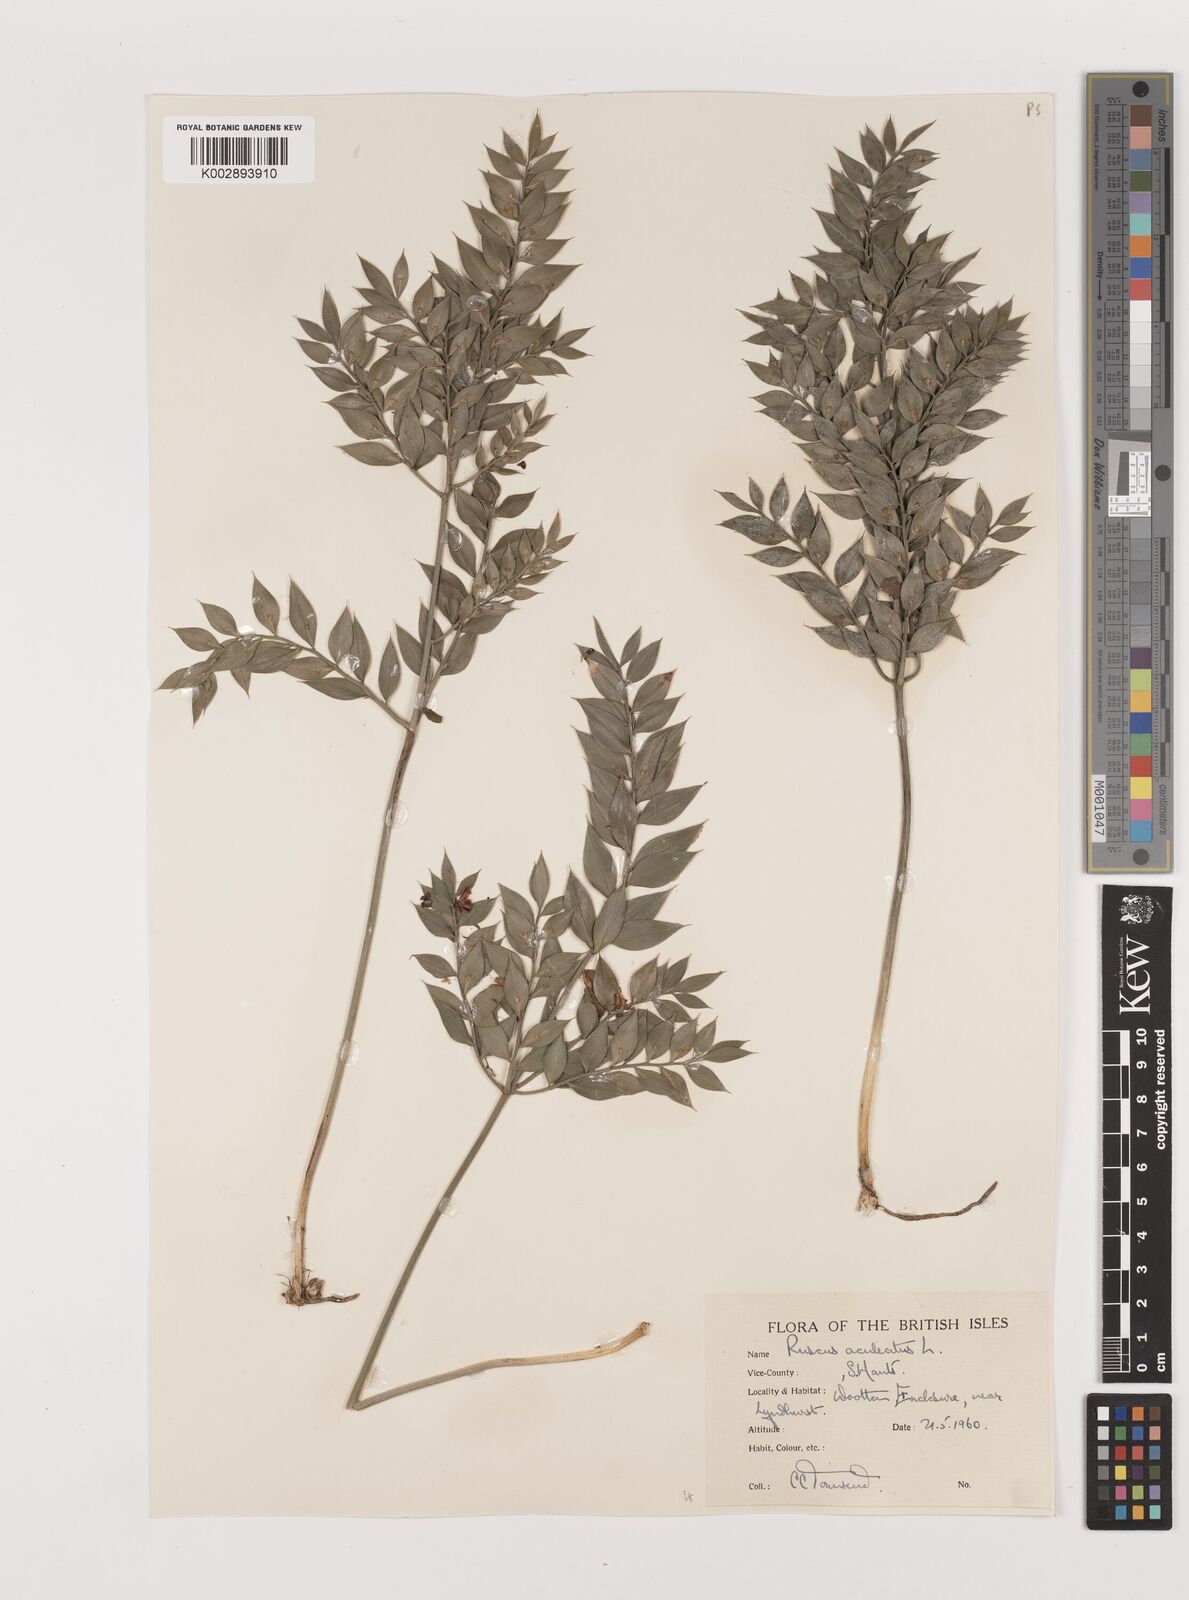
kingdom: Plantae
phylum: Tracheophyta
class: Liliopsida
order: Asparagales
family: Asparagaceae
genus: Ruscus
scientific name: Ruscus aculeatus
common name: Butcher's-broom
